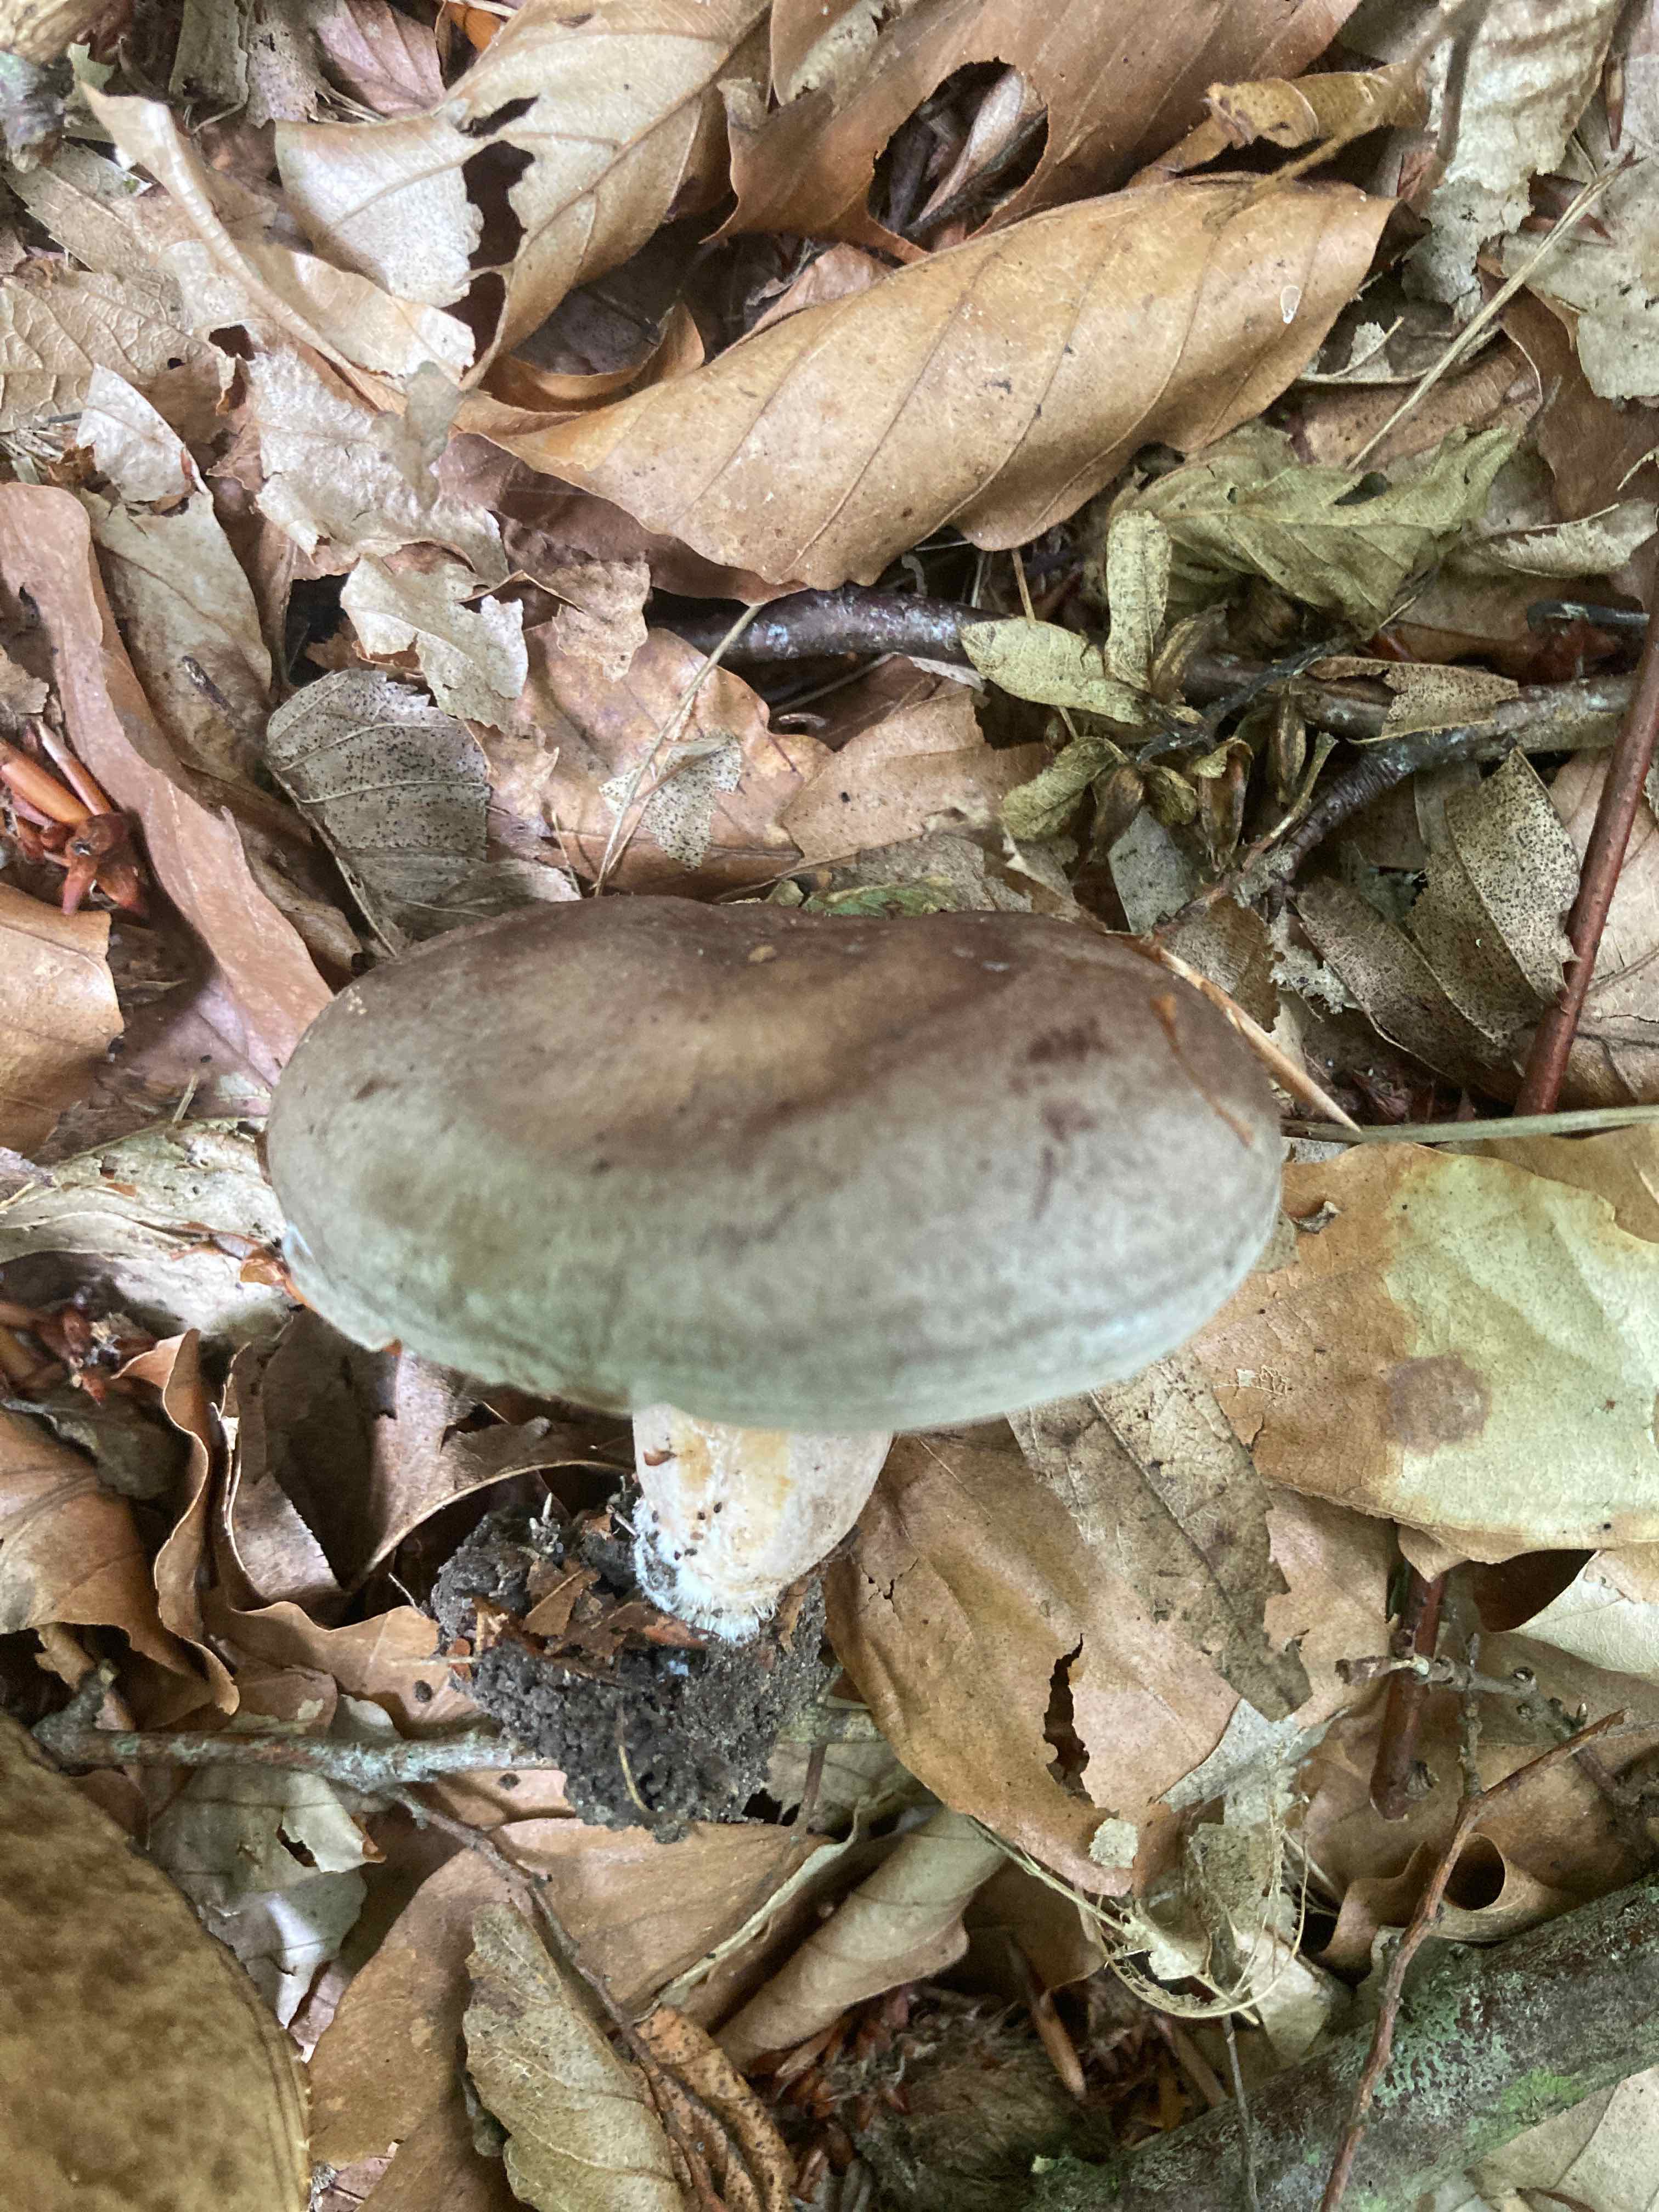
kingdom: Fungi
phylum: Basidiomycota
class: Agaricomycetes
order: Russulales
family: Russulaceae
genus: Lactarius
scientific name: Lactarius circellatus
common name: avnbøg-mælkehat
